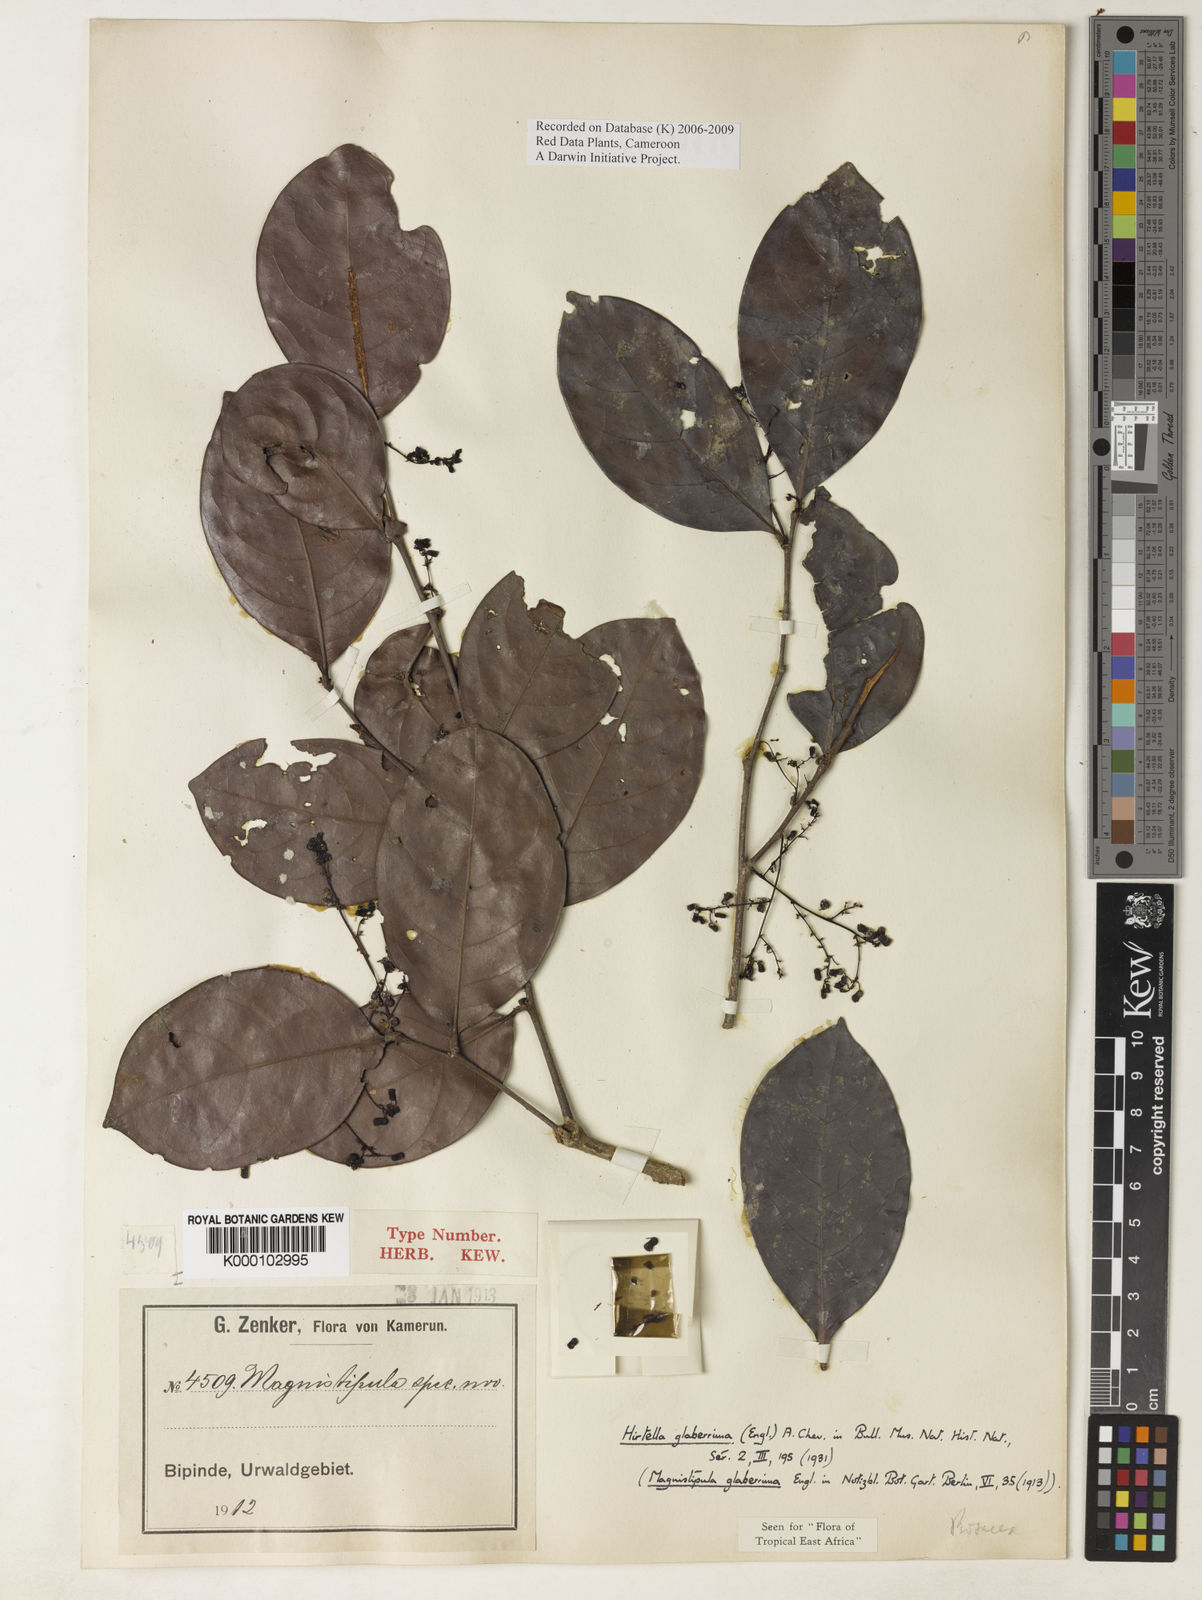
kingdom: Plantae
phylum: Tracheophyta
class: Magnoliopsida
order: Malpighiales
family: Chrysobalanaceae
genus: Magnistipula
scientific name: Magnistipula glaberrima
